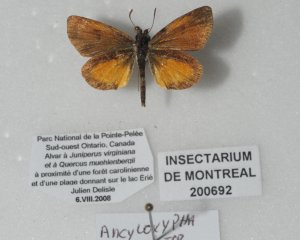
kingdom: Animalia
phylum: Arthropoda
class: Insecta
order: Lepidoptera
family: Hesperiidae
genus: Ancyloxypha
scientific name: Ancyloxypha numitor
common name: Least Skipper
